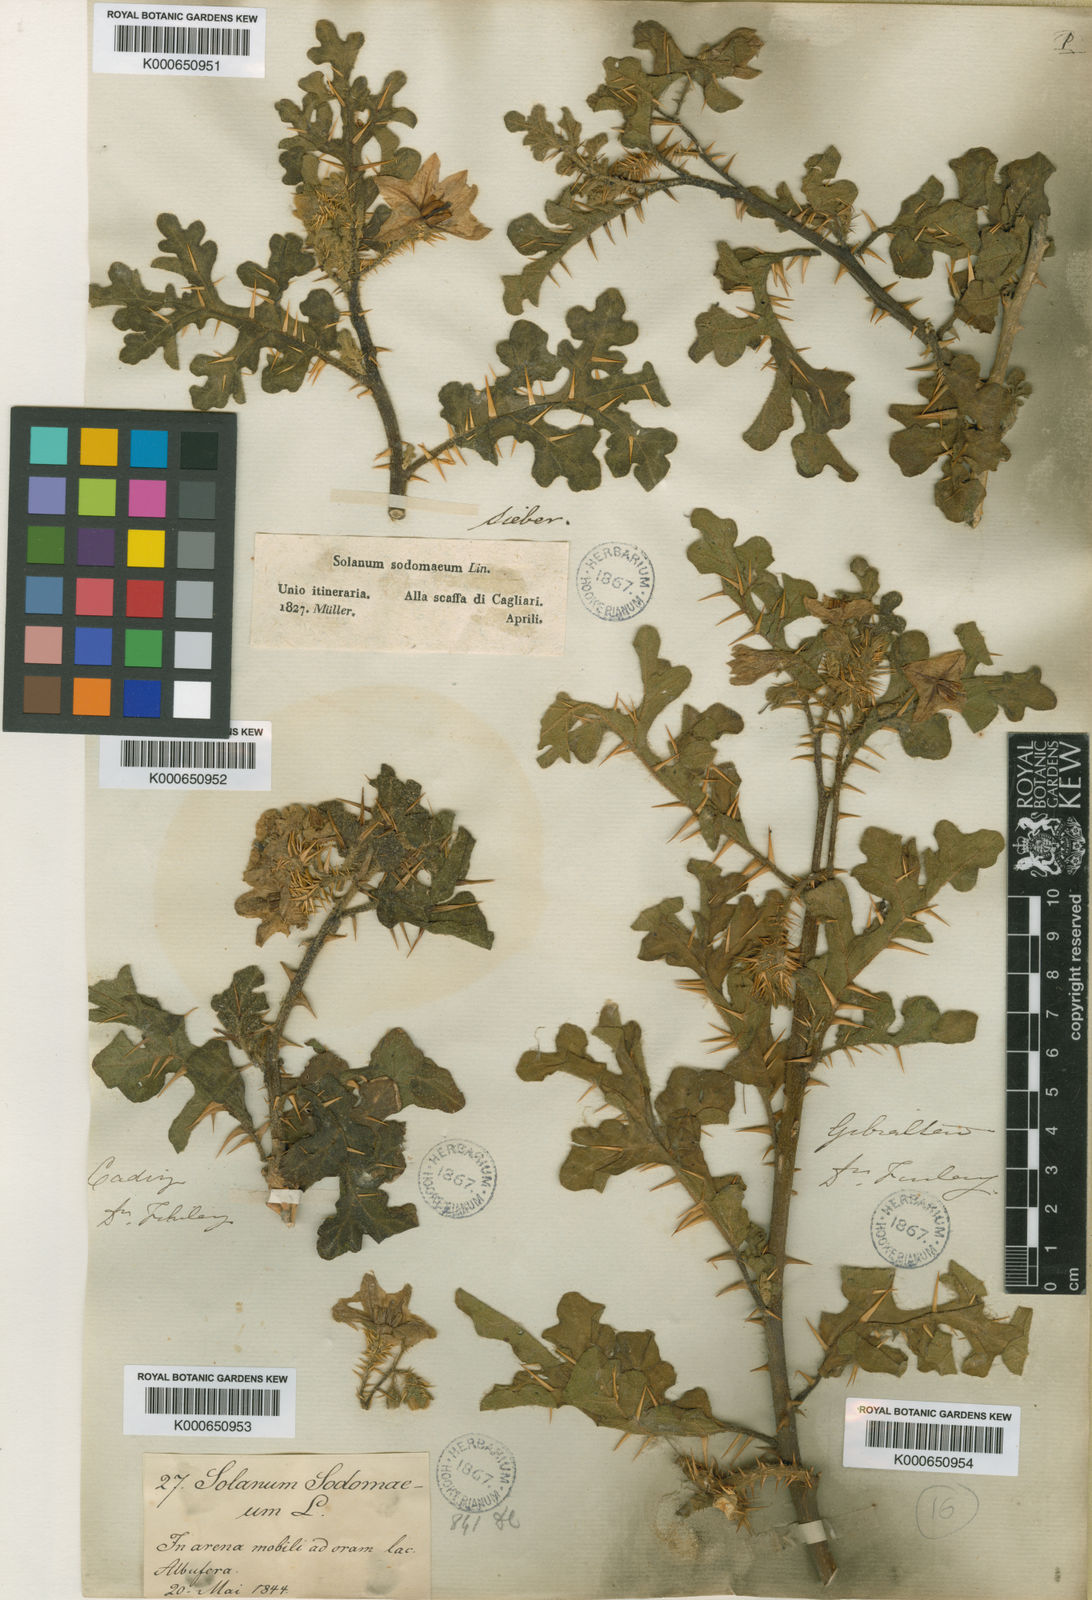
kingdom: Plantae
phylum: Tracheophyta
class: Magnoliopsida
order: Solanales
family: Solanaceae
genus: Solanum
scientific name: Solanum anguivi
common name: Forest bitterberry
